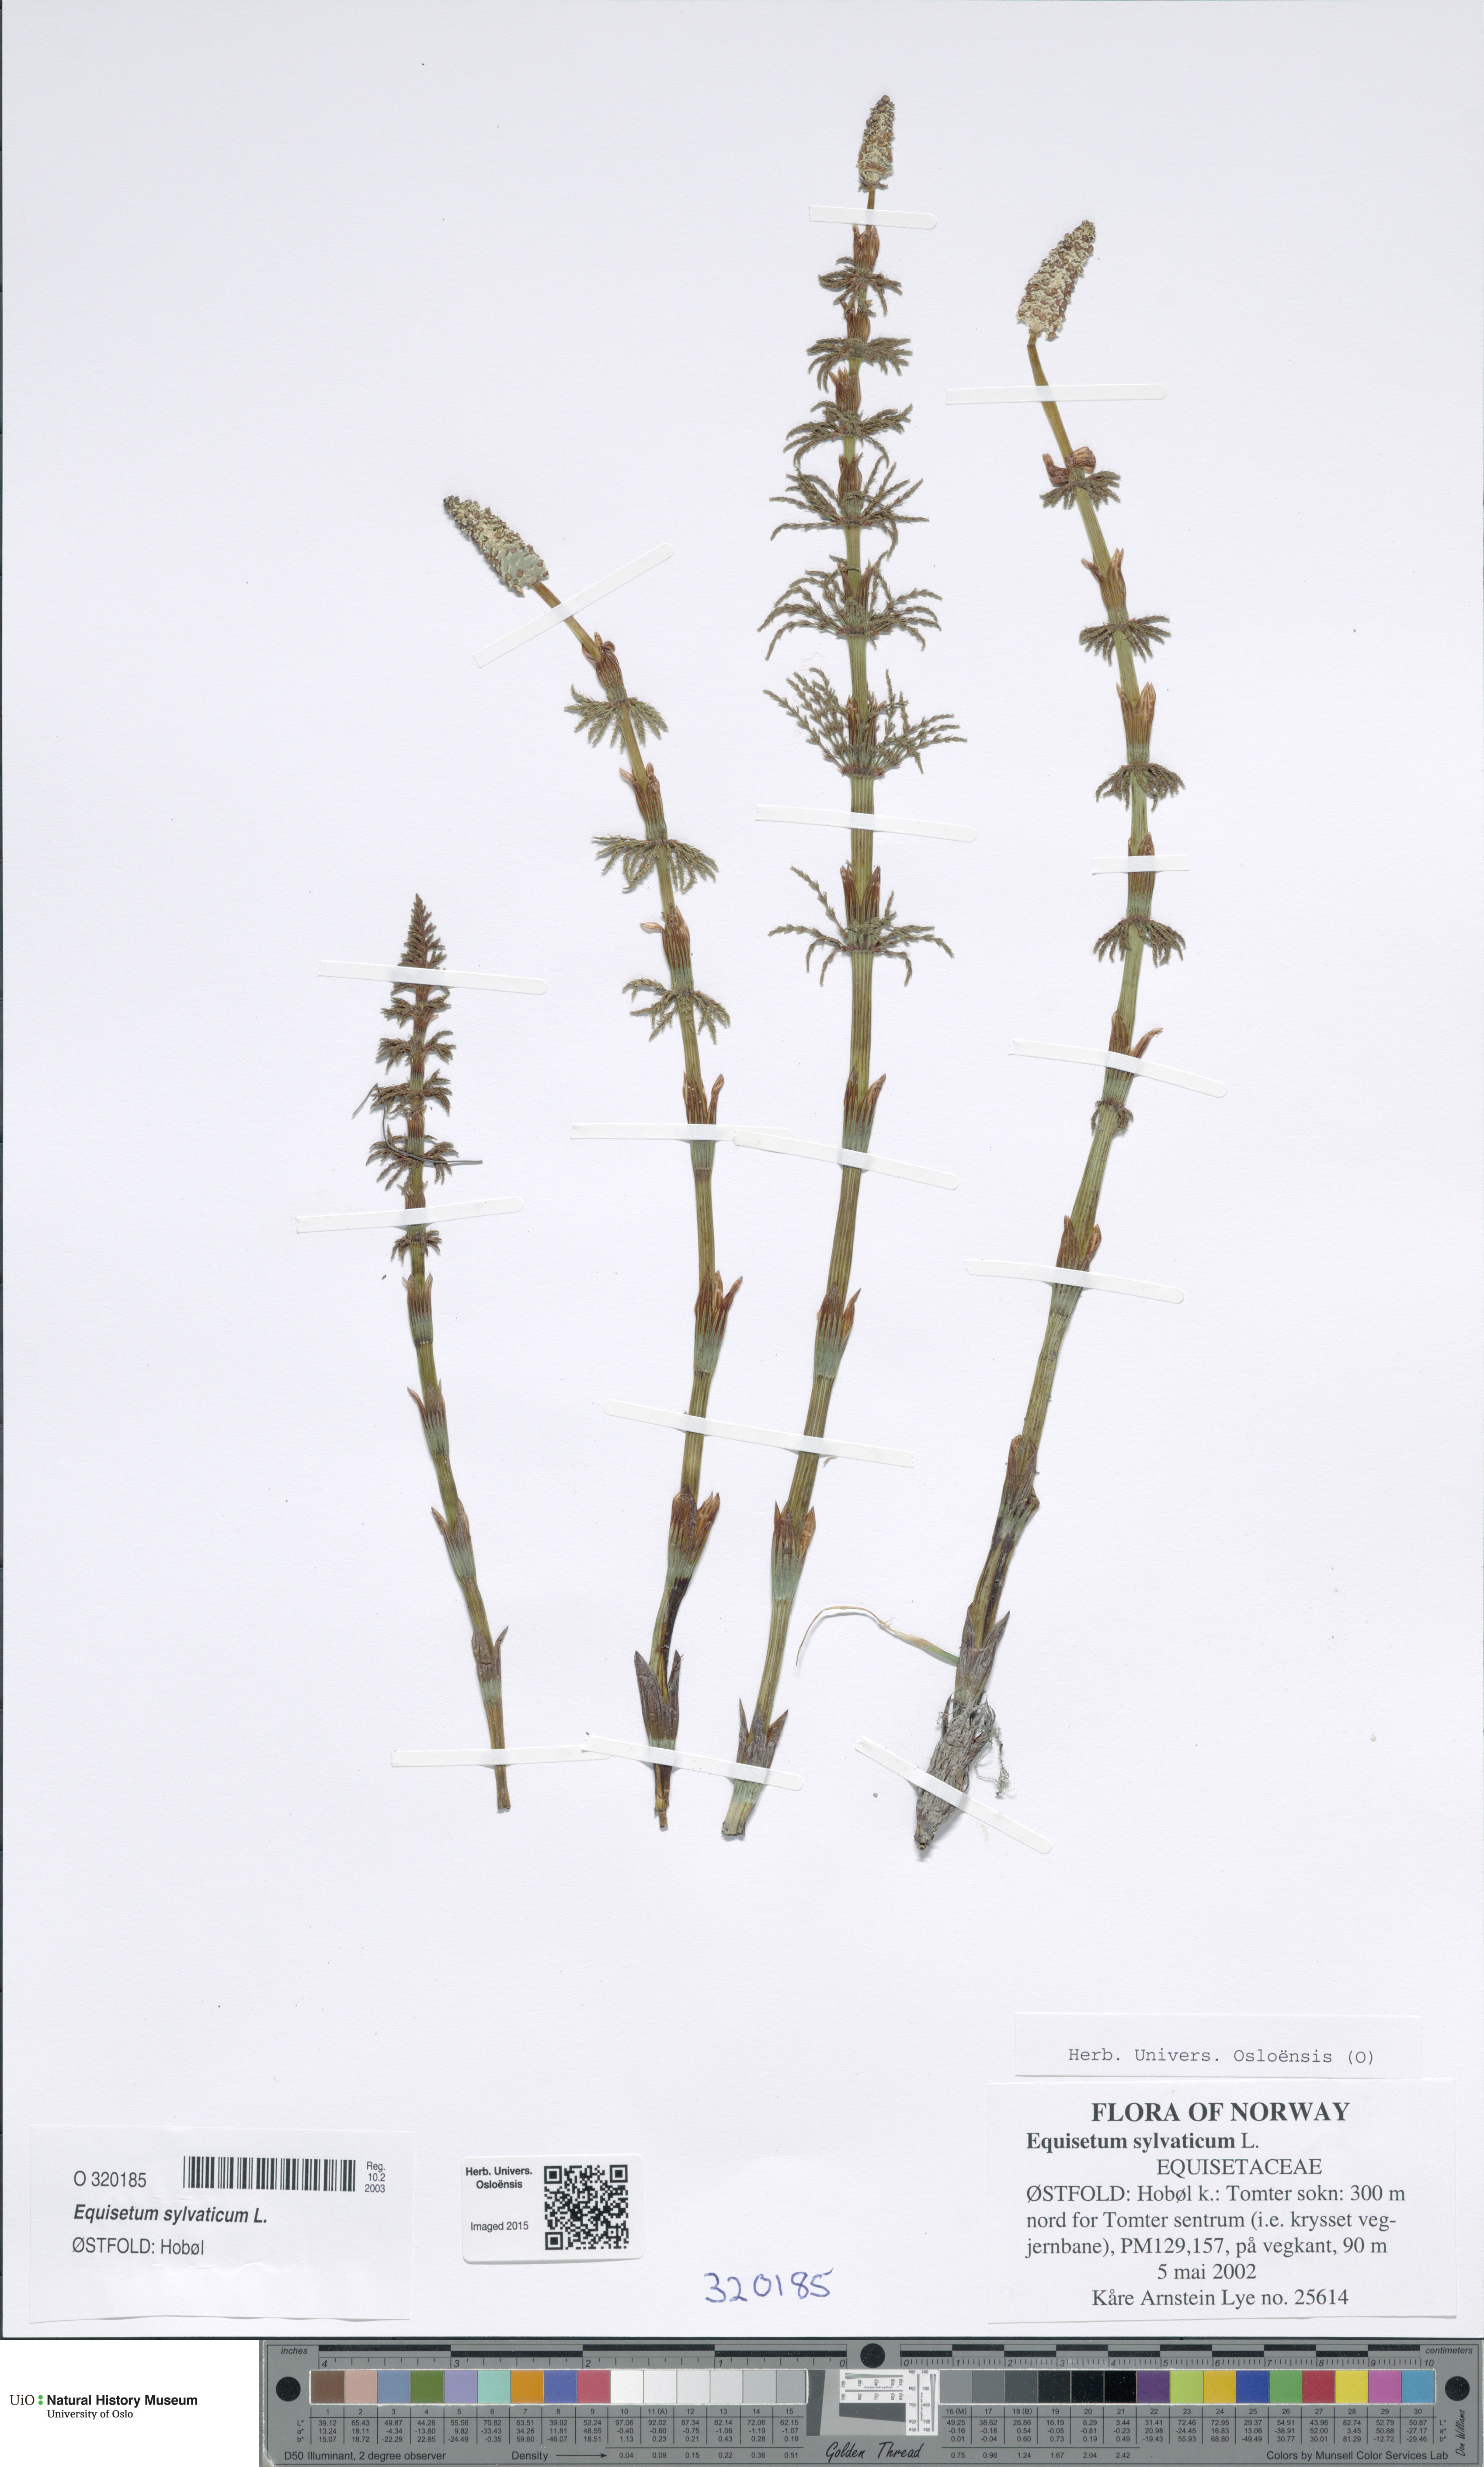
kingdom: Plantae
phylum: Tracheophyta
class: Polypodiopsida
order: Equisetales
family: Equisetaceae
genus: Equisetum
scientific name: Equisetum sylvaticum
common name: Wood horsetail
